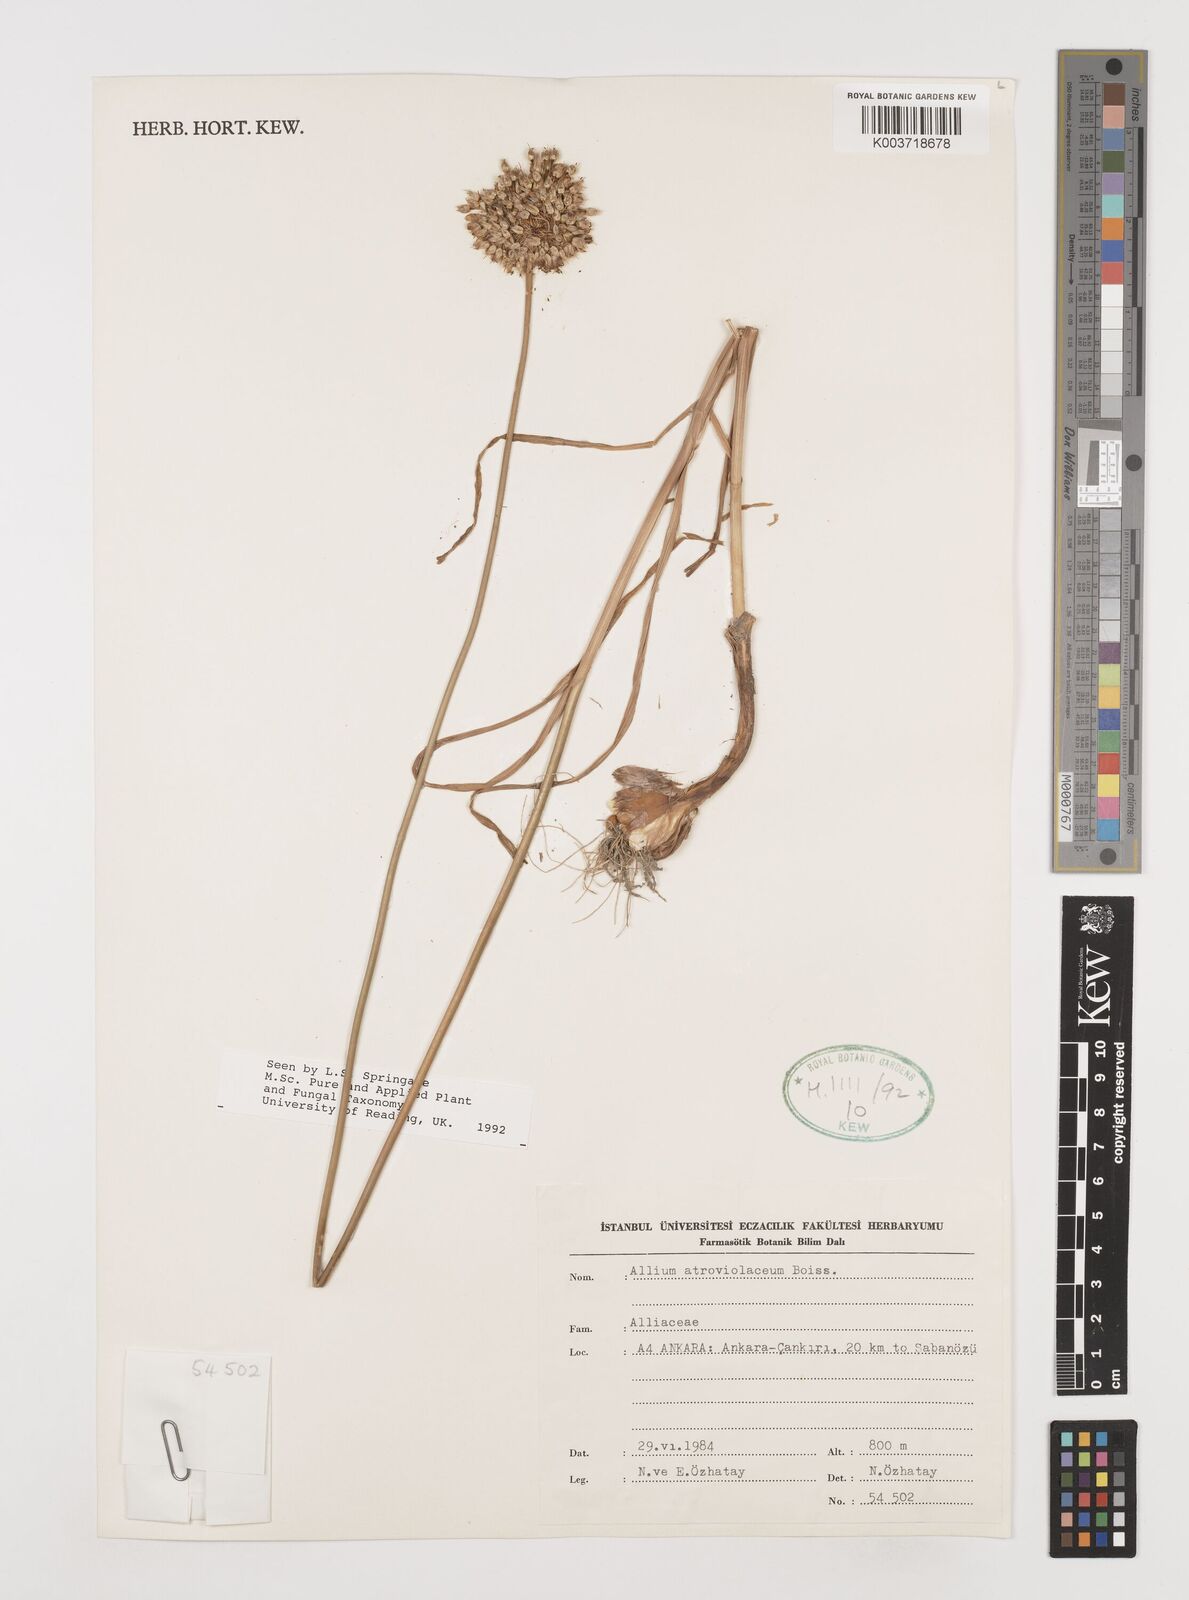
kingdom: Plantae
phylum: Tracheophyta
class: Liliopsida
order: Asparagales
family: Amaryllidaceae
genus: Allium
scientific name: Allium atroviolaceum
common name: Broadleaf wild leek
